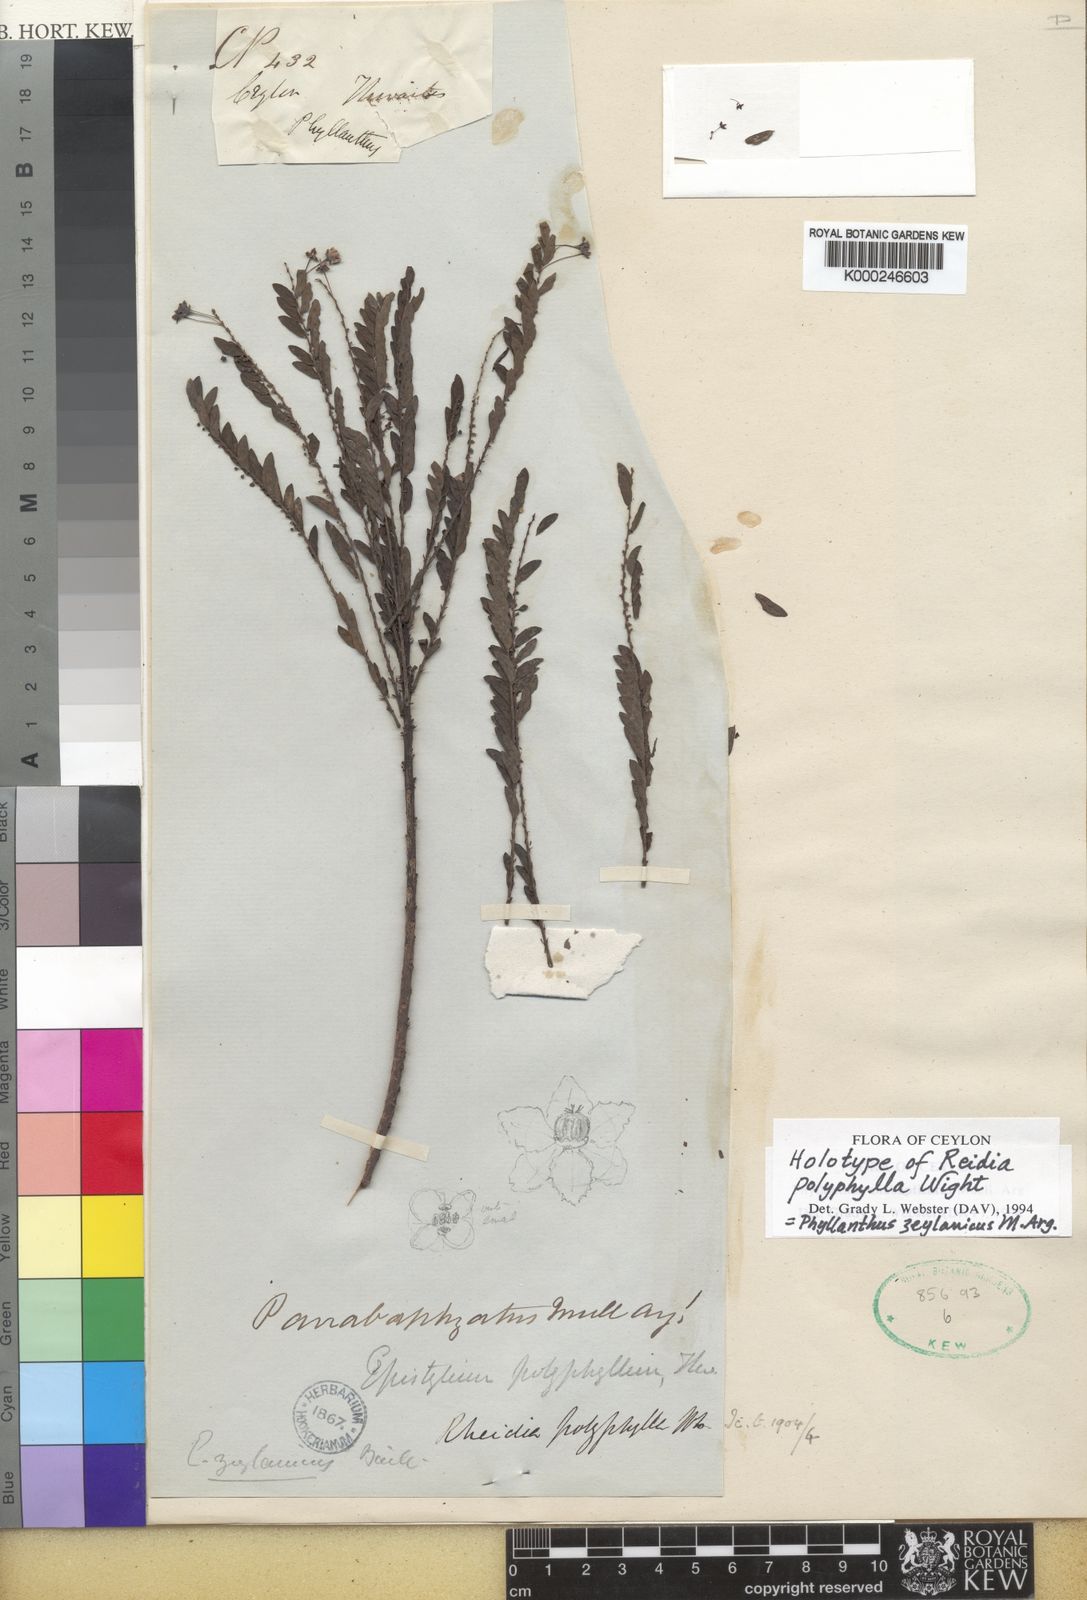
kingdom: Plantae
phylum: Tracheophyta
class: Magnoliopsida
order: Malpighiales
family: Phyllanthaceae
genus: Phyllanthus
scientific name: Phyllanthus
